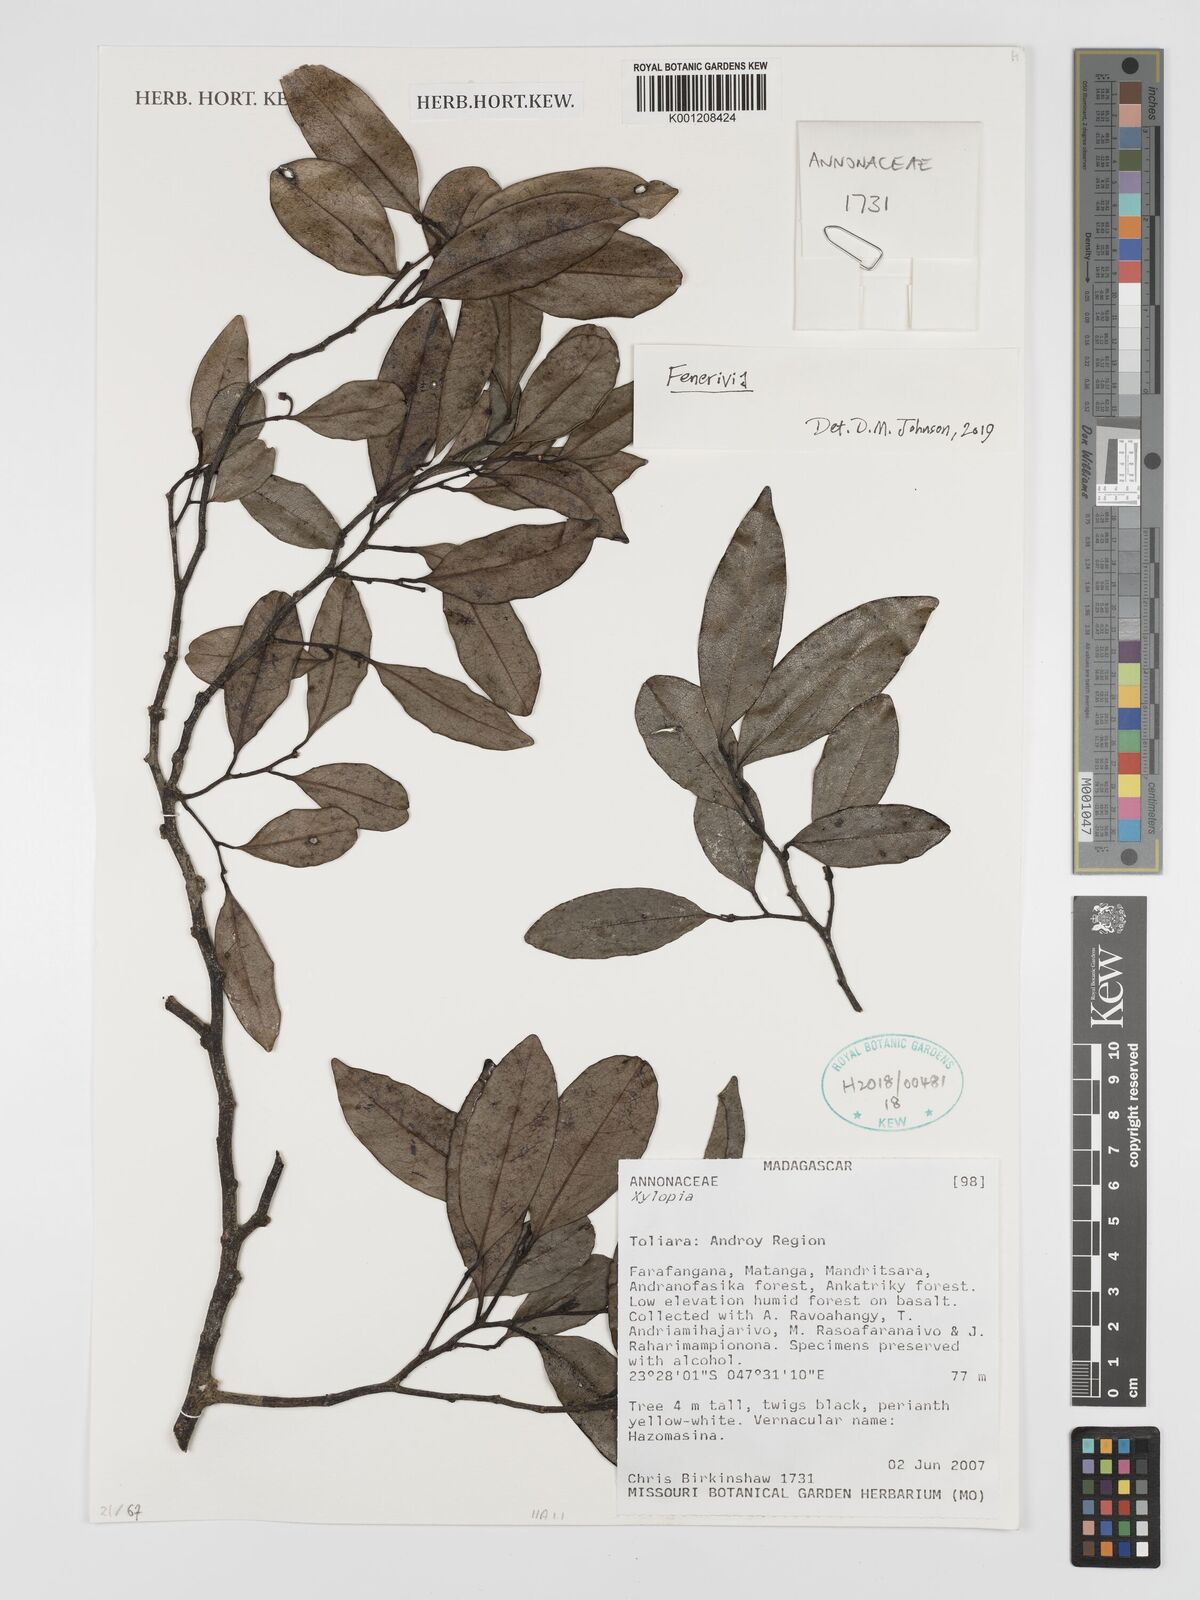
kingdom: Plantae
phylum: Tracheophyta
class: Magnoliopsida
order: Magnoliales
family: Annonaceae
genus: Xylopia
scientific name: Xylopia
